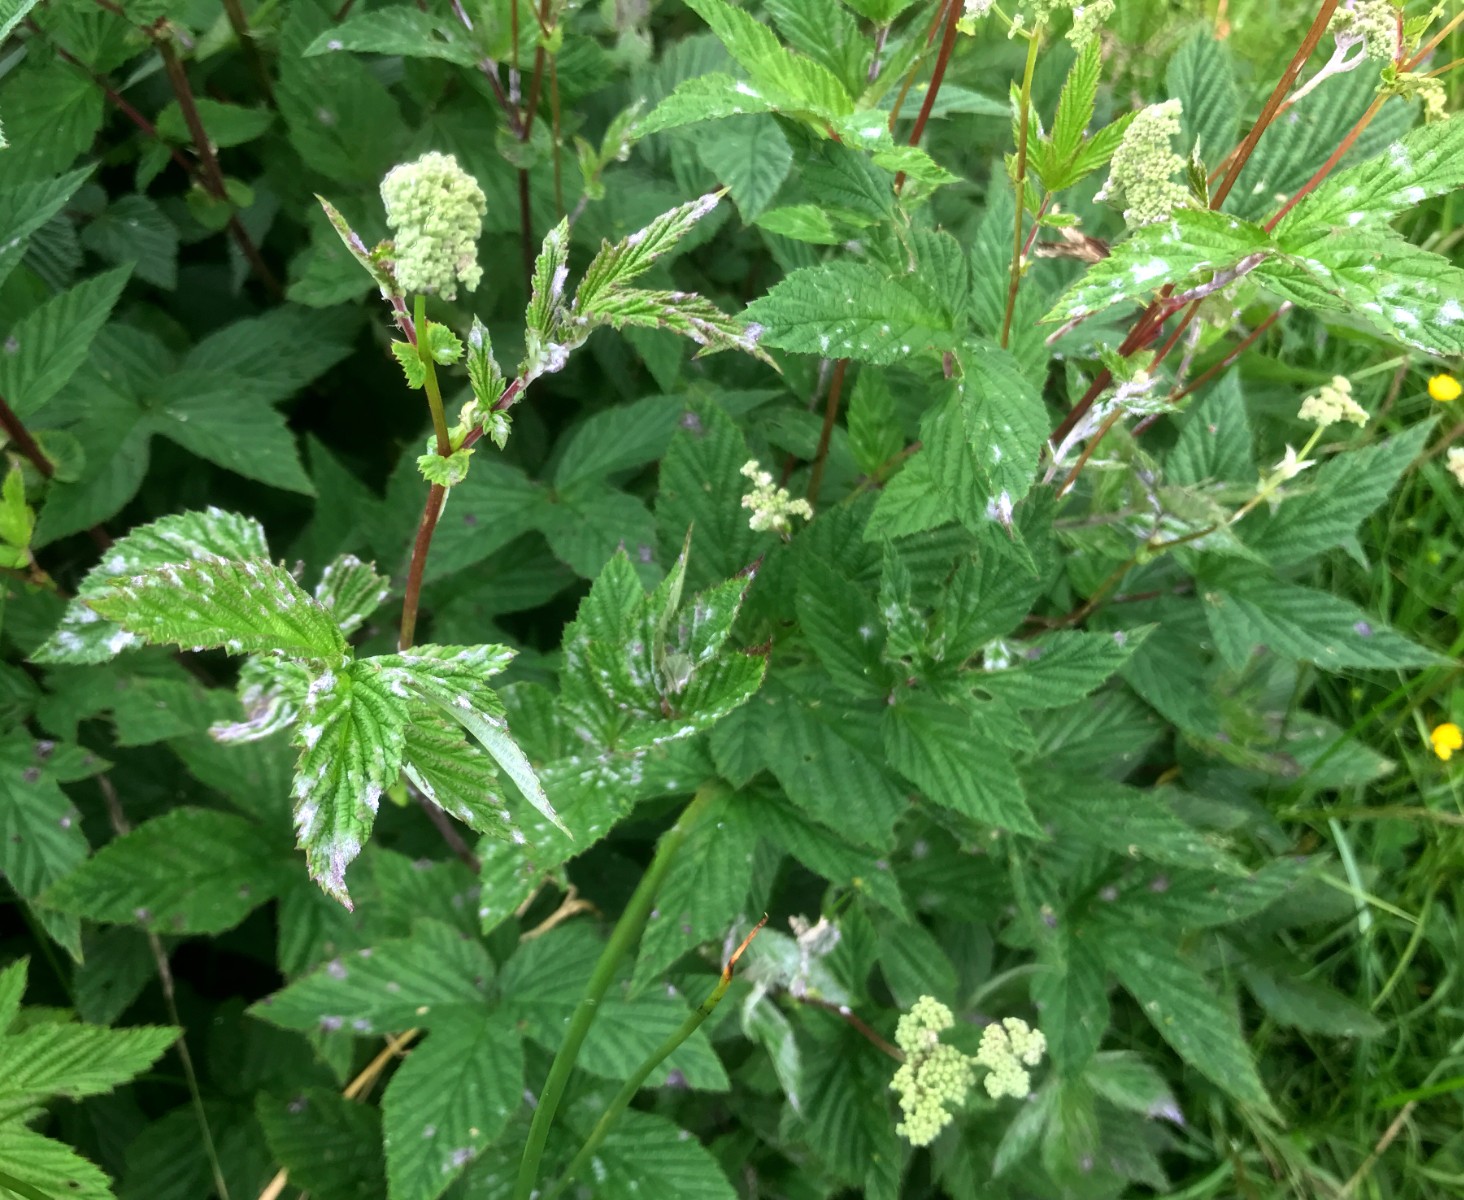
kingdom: Fungi
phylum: Ascomycota
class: Leotiomycetes
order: Helotiales
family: Erysiphaceae
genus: Podosphaera
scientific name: Podosphaera filipendulae
